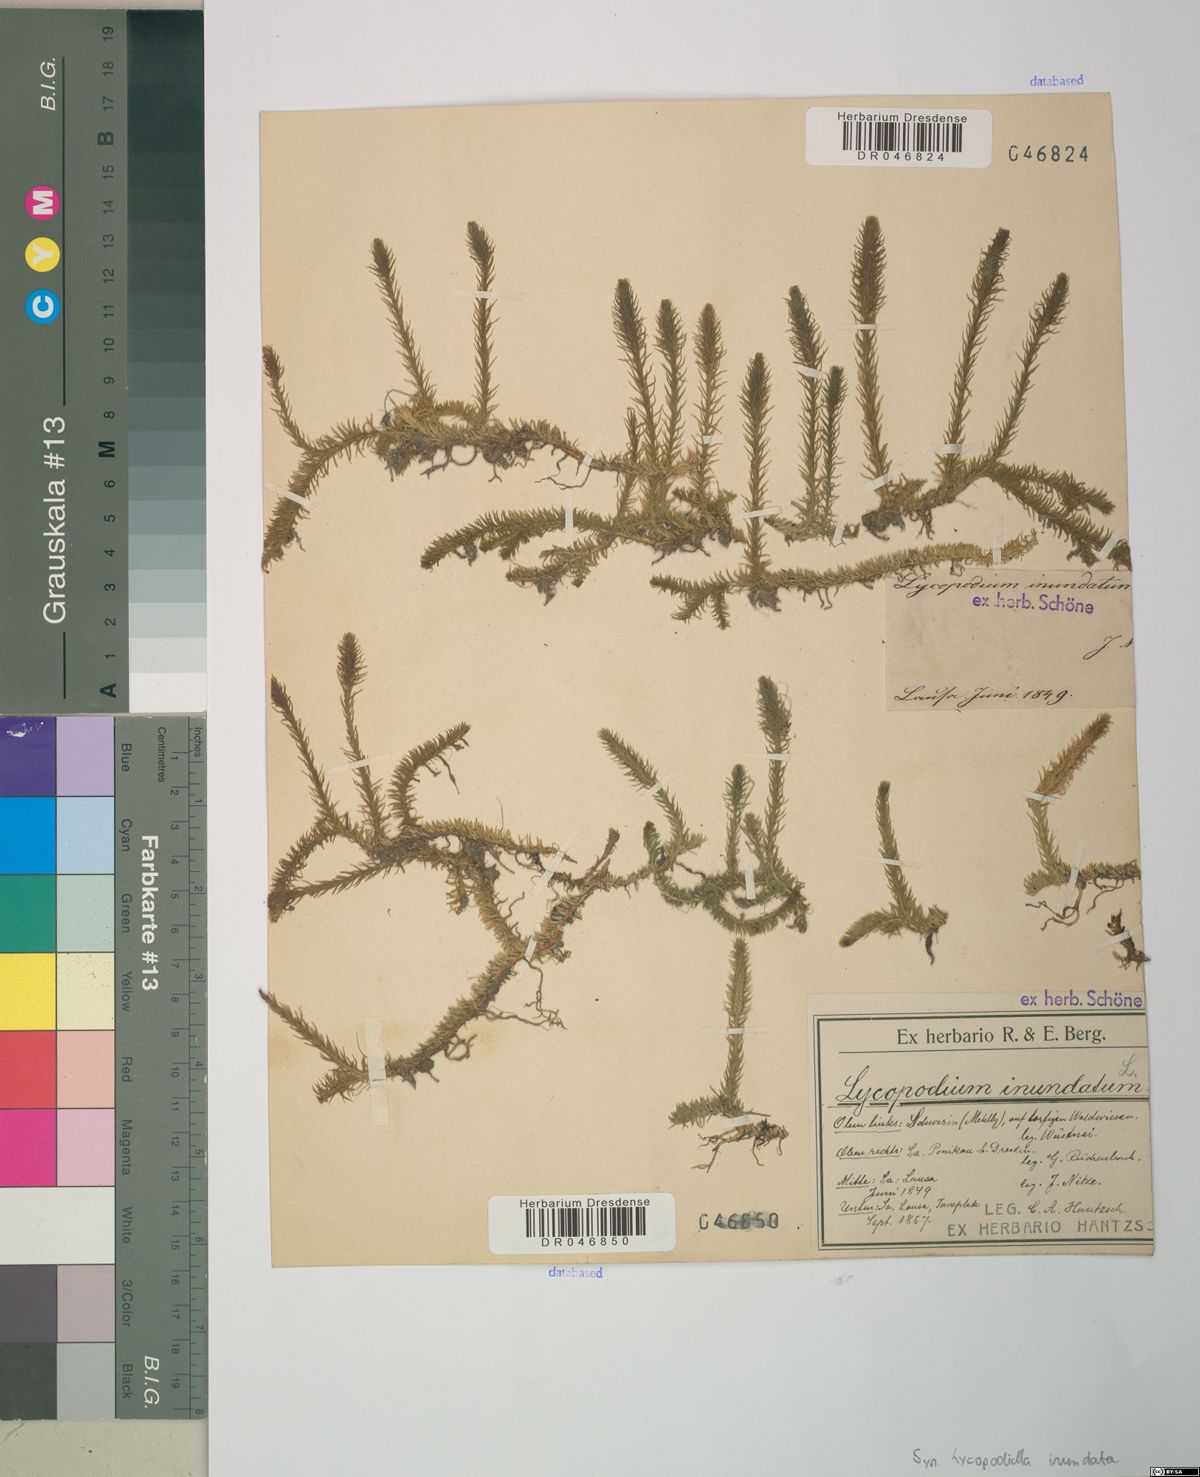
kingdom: Plantae
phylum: Tracheophyta
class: Lycopodiopsida
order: Lycopodiales
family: Lycopodiaceae
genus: Lycopodiella
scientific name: Lycopodiella inundata
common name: Marsh clubmoss
